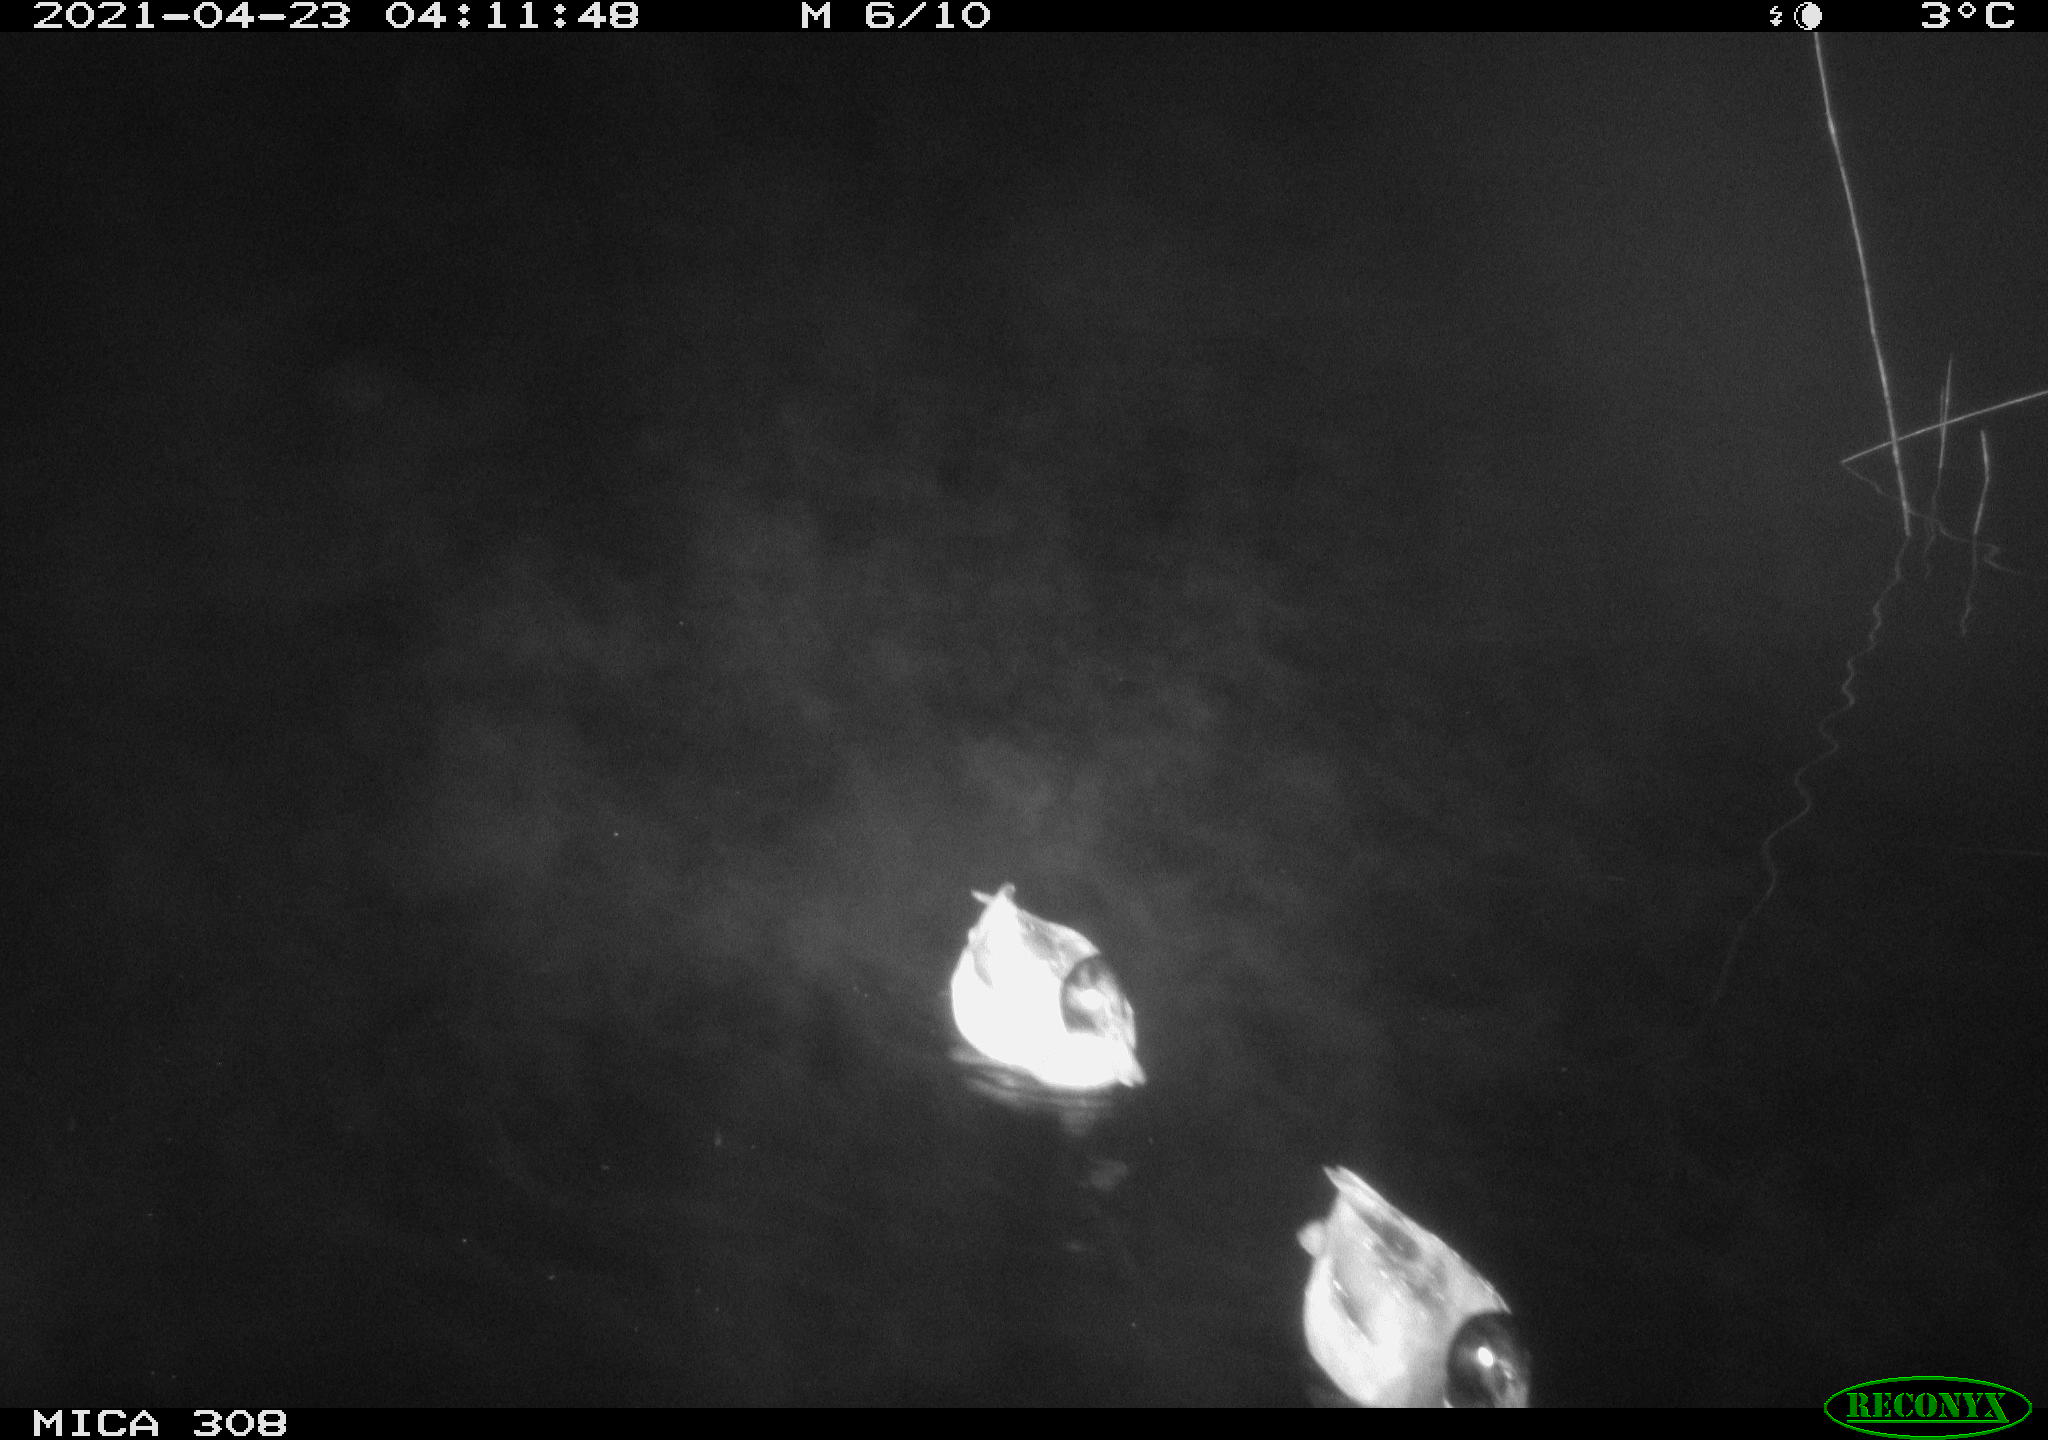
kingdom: Animalia
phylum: Chordata
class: Aves
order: Anseriformes
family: Anatidae
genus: Anas
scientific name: Anas platyrhynchos
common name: Mallard
